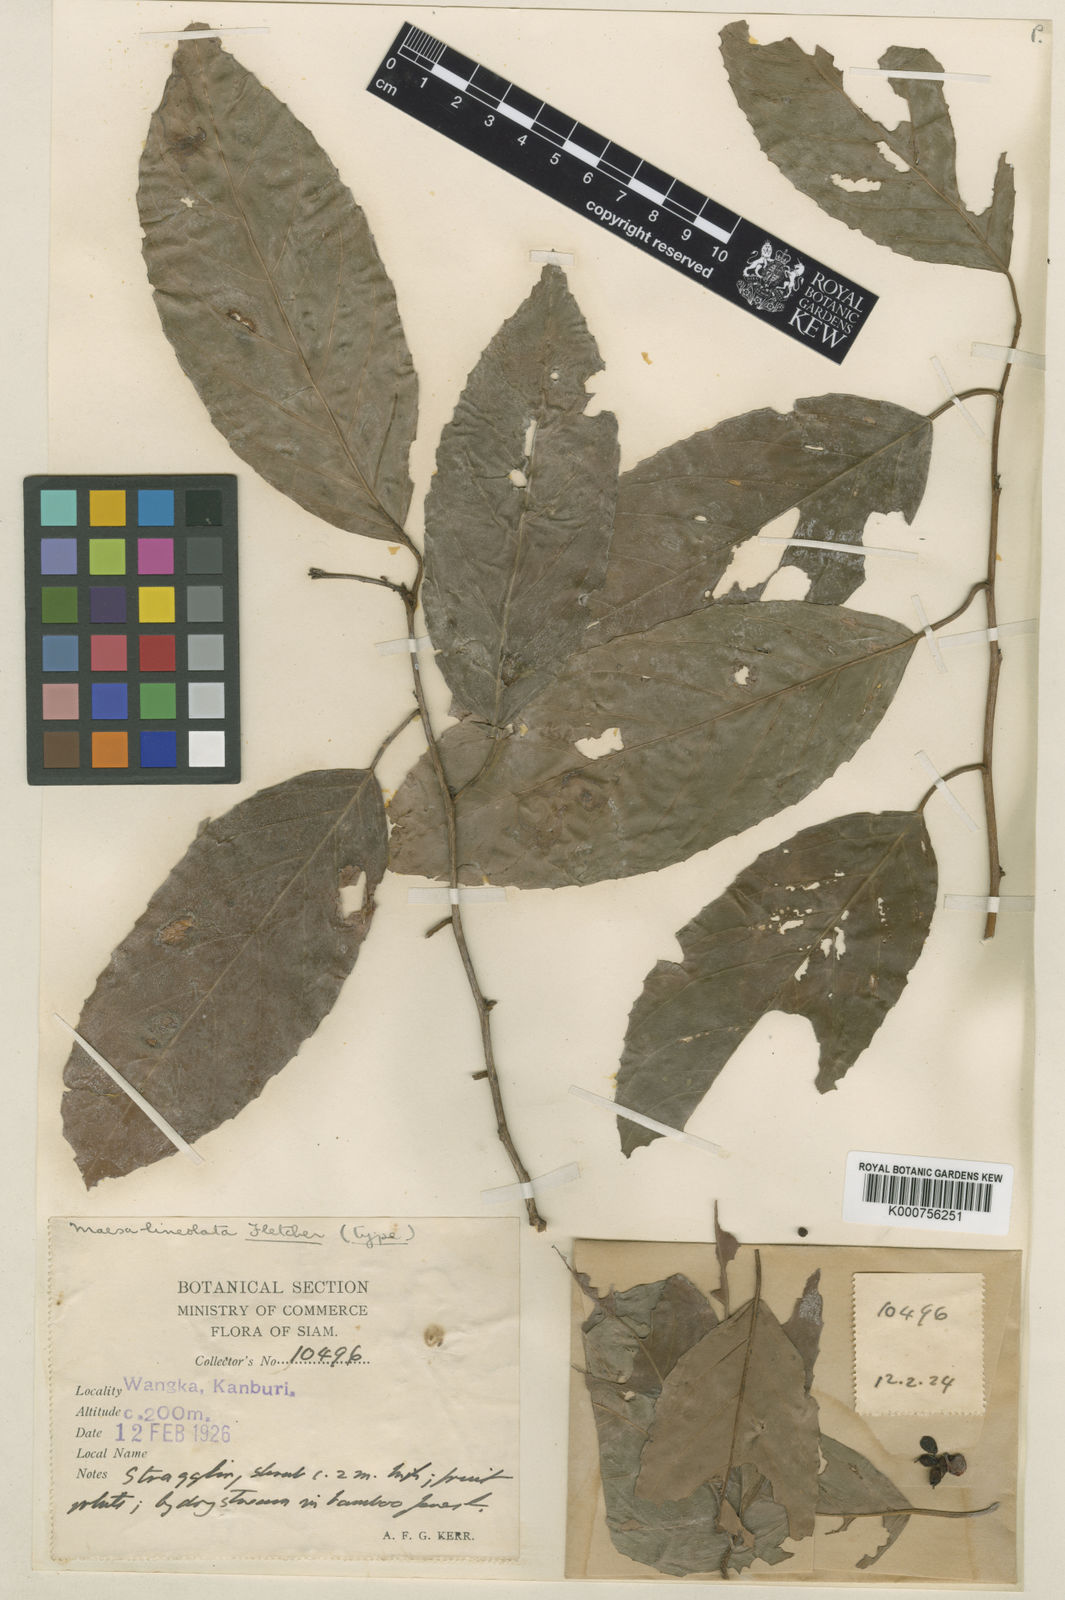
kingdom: Plantae
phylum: Tracheophyta
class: Magnoliopsida
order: Ericales
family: Primulaceae
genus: Maesa
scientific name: Maesa lineolata
